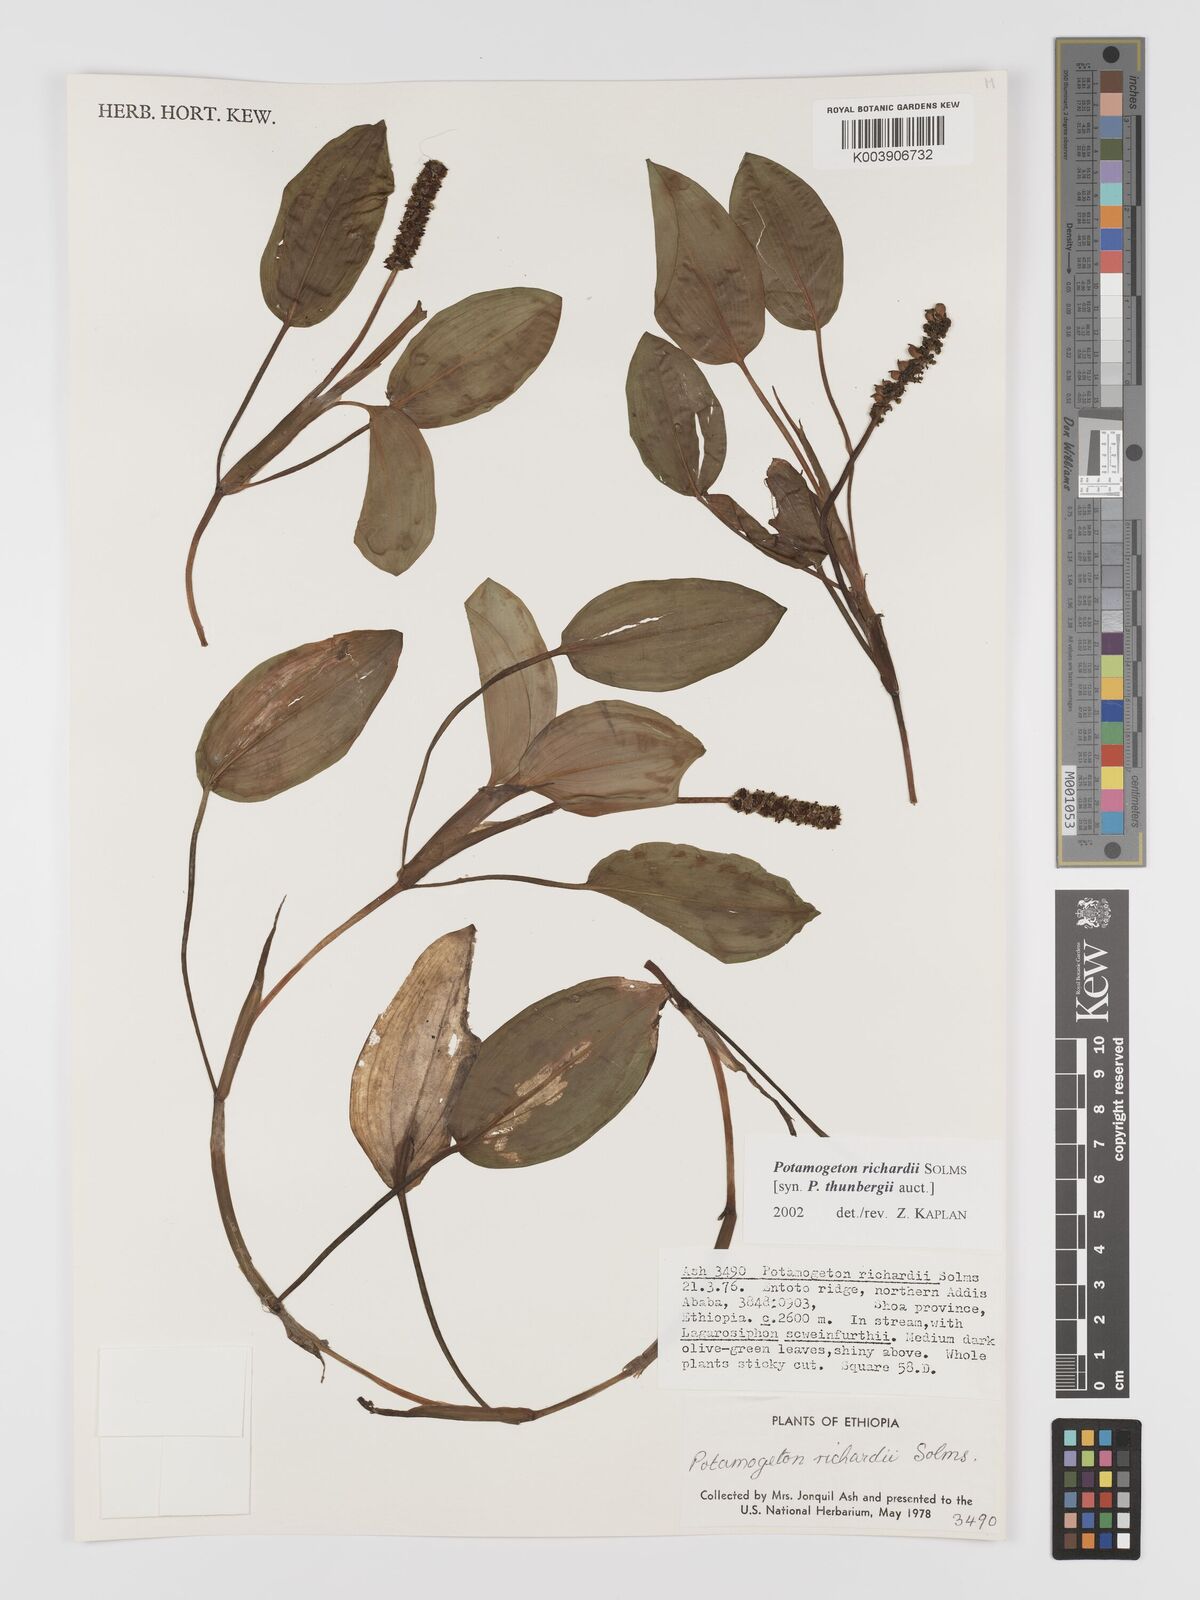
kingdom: Plantae
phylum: Tracheophyta
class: Liliopsida
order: Alismatales
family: Potamogetonaceae
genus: Potamogeton
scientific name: Potamogeton richardii
